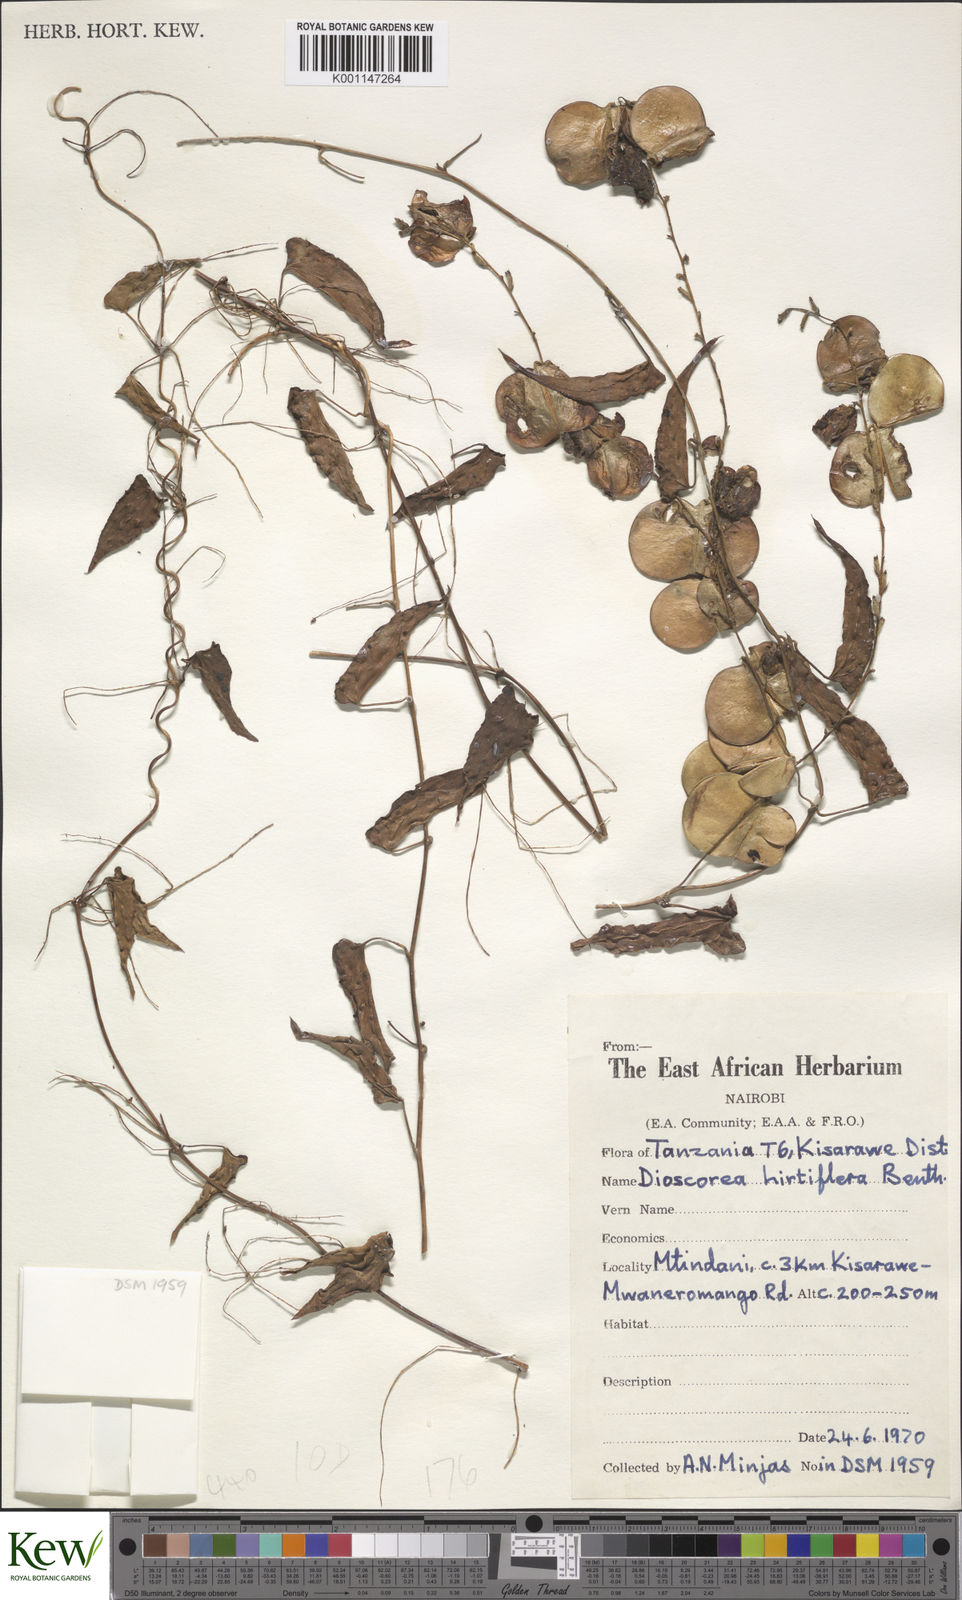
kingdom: Plantae
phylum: Tracheophyta
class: Liliopsida
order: Dioscoreales
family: Dioscoreaceae
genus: Dioscorea
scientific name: Dioscorea hirtiflora
